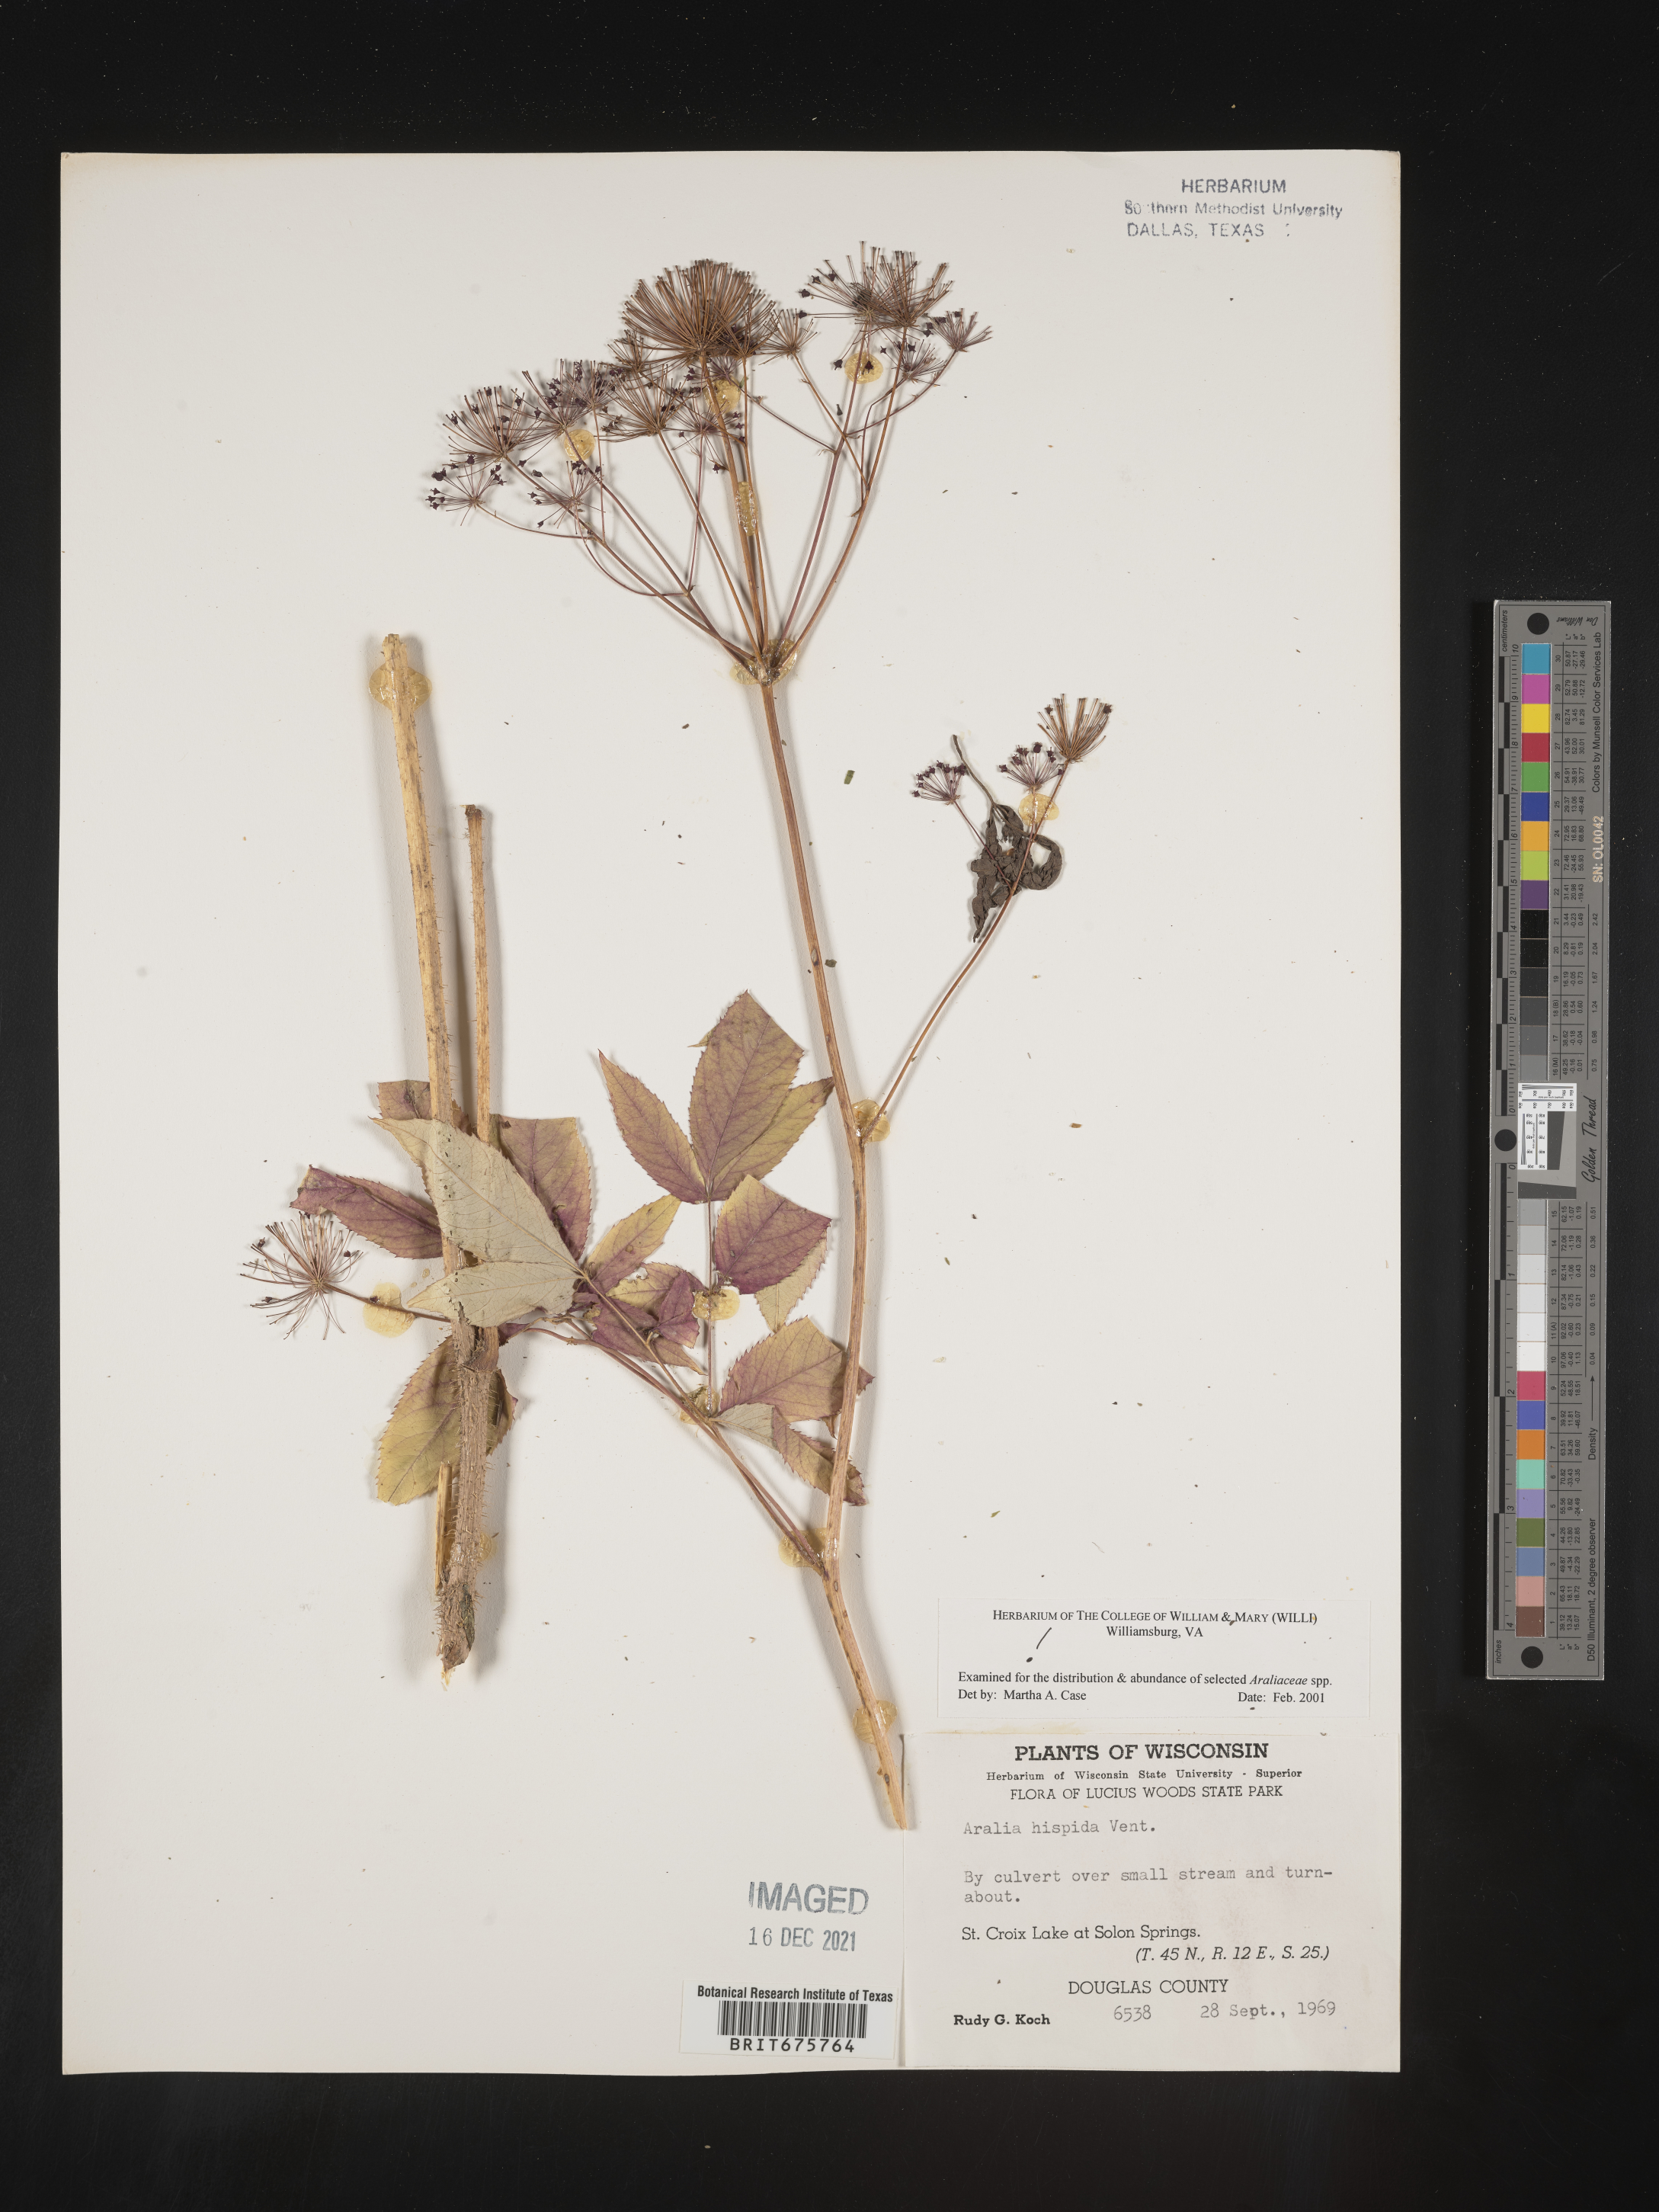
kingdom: Plantae
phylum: Tracheophyta
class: Magnoliopsida
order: Apiales
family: Araliaceae
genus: Aralia
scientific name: Aralia hispida
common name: Bristly sarsaparilla
